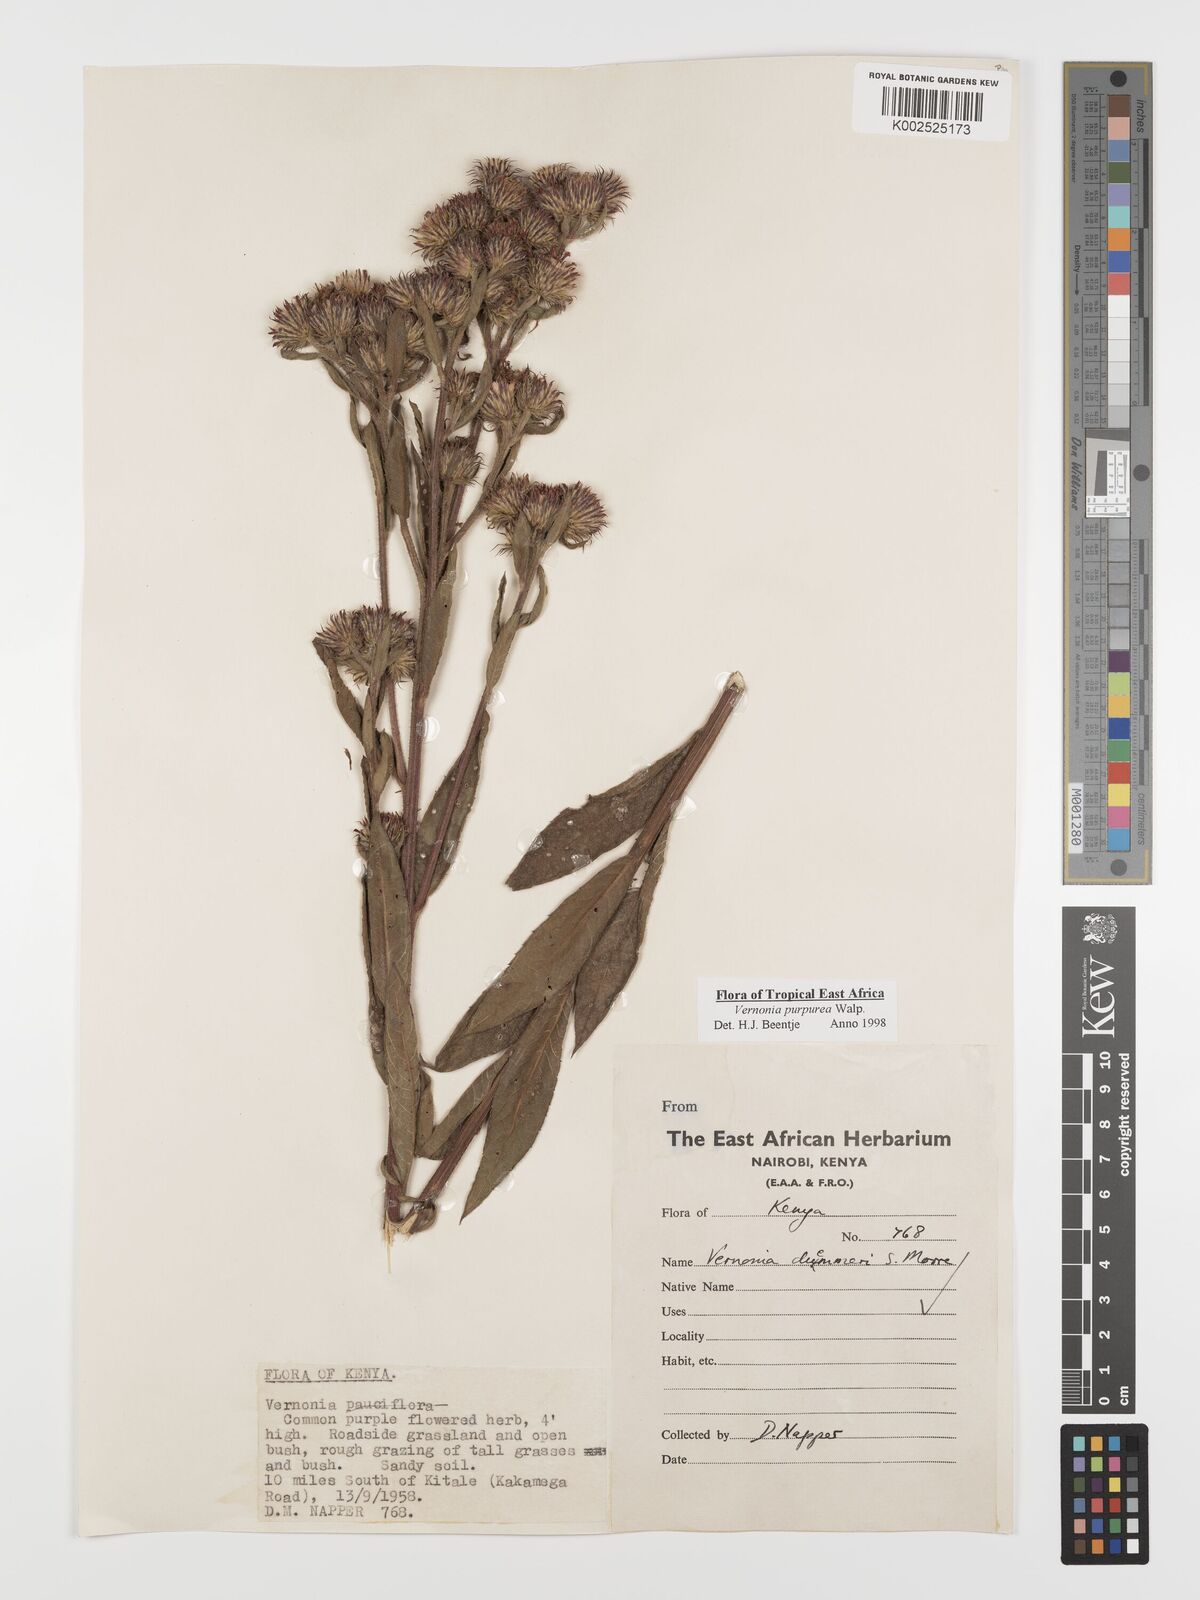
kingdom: Plantae
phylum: Tracheophyta
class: Magnoliopsida
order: Asterales
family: Asteraceae
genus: Nothovernonia
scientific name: Nothovernonia purpurea
